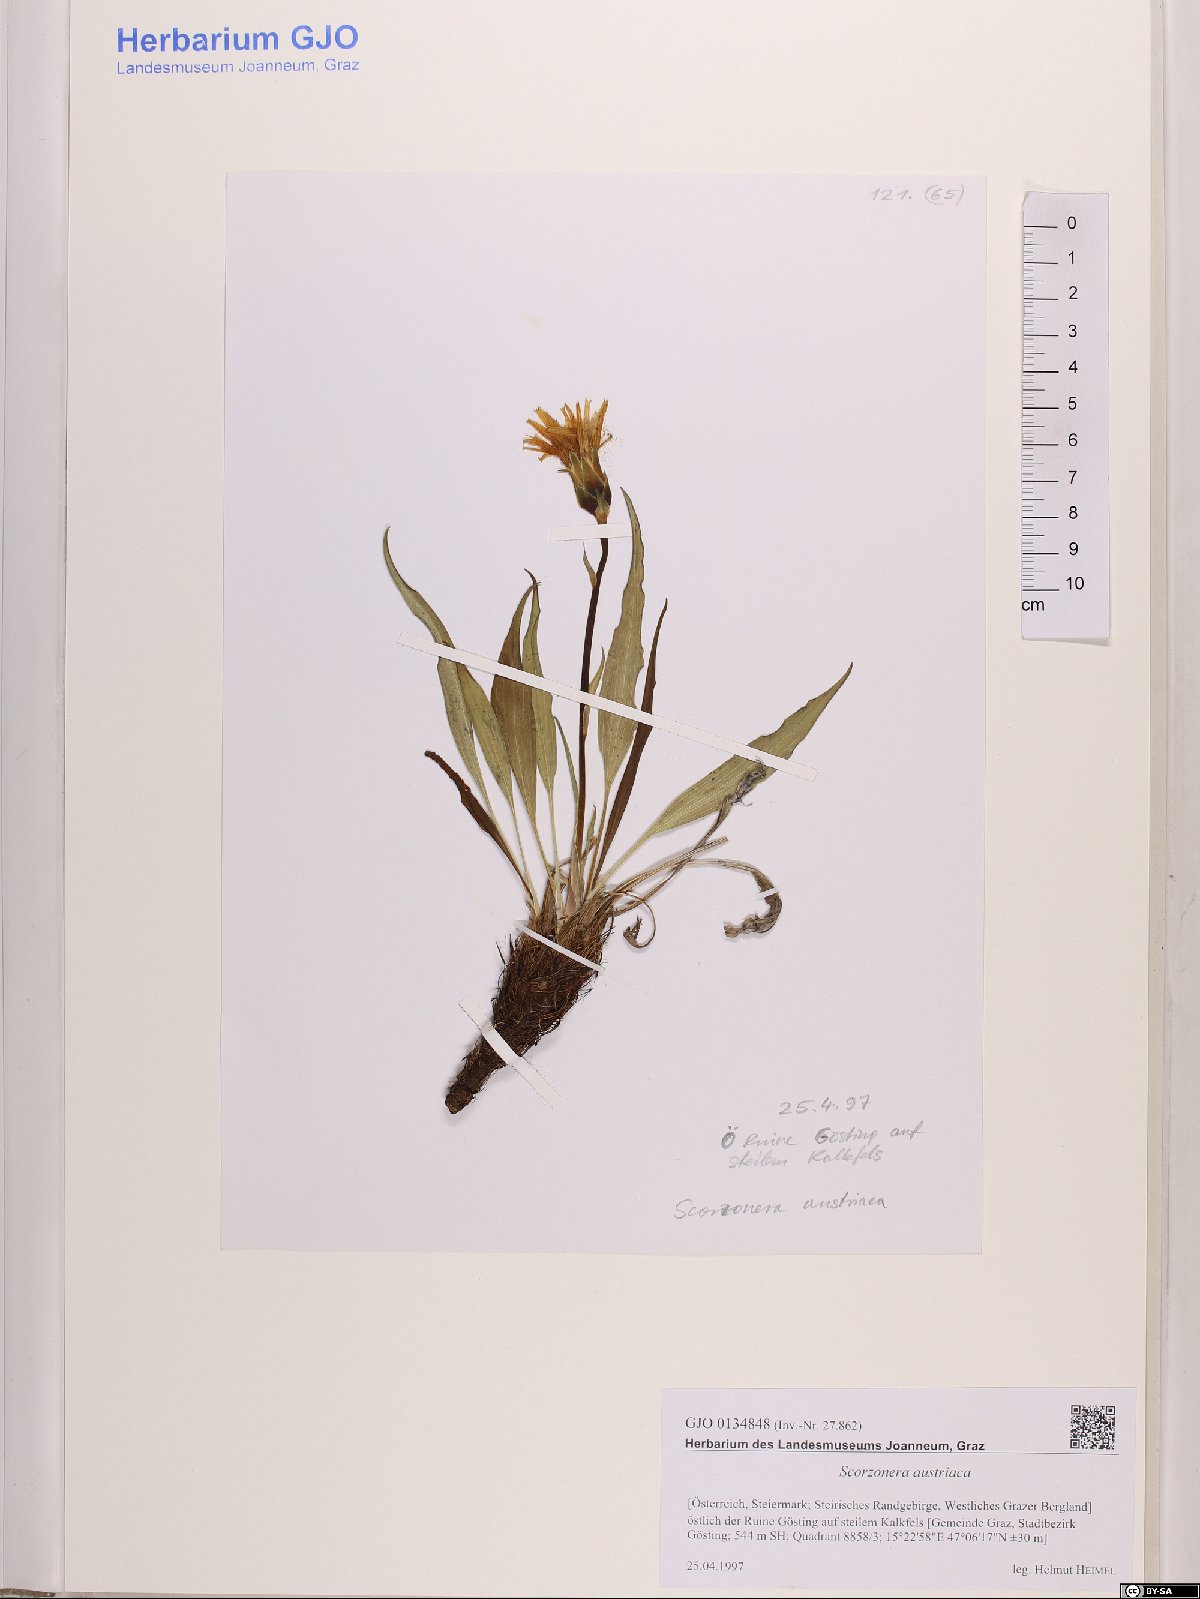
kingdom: Plantae
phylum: Tracheophyta
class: Magnoliopsida
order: Asterales
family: Asteraceae
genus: Takhtajaniantha
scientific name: Takhtajaniantha austriaca
